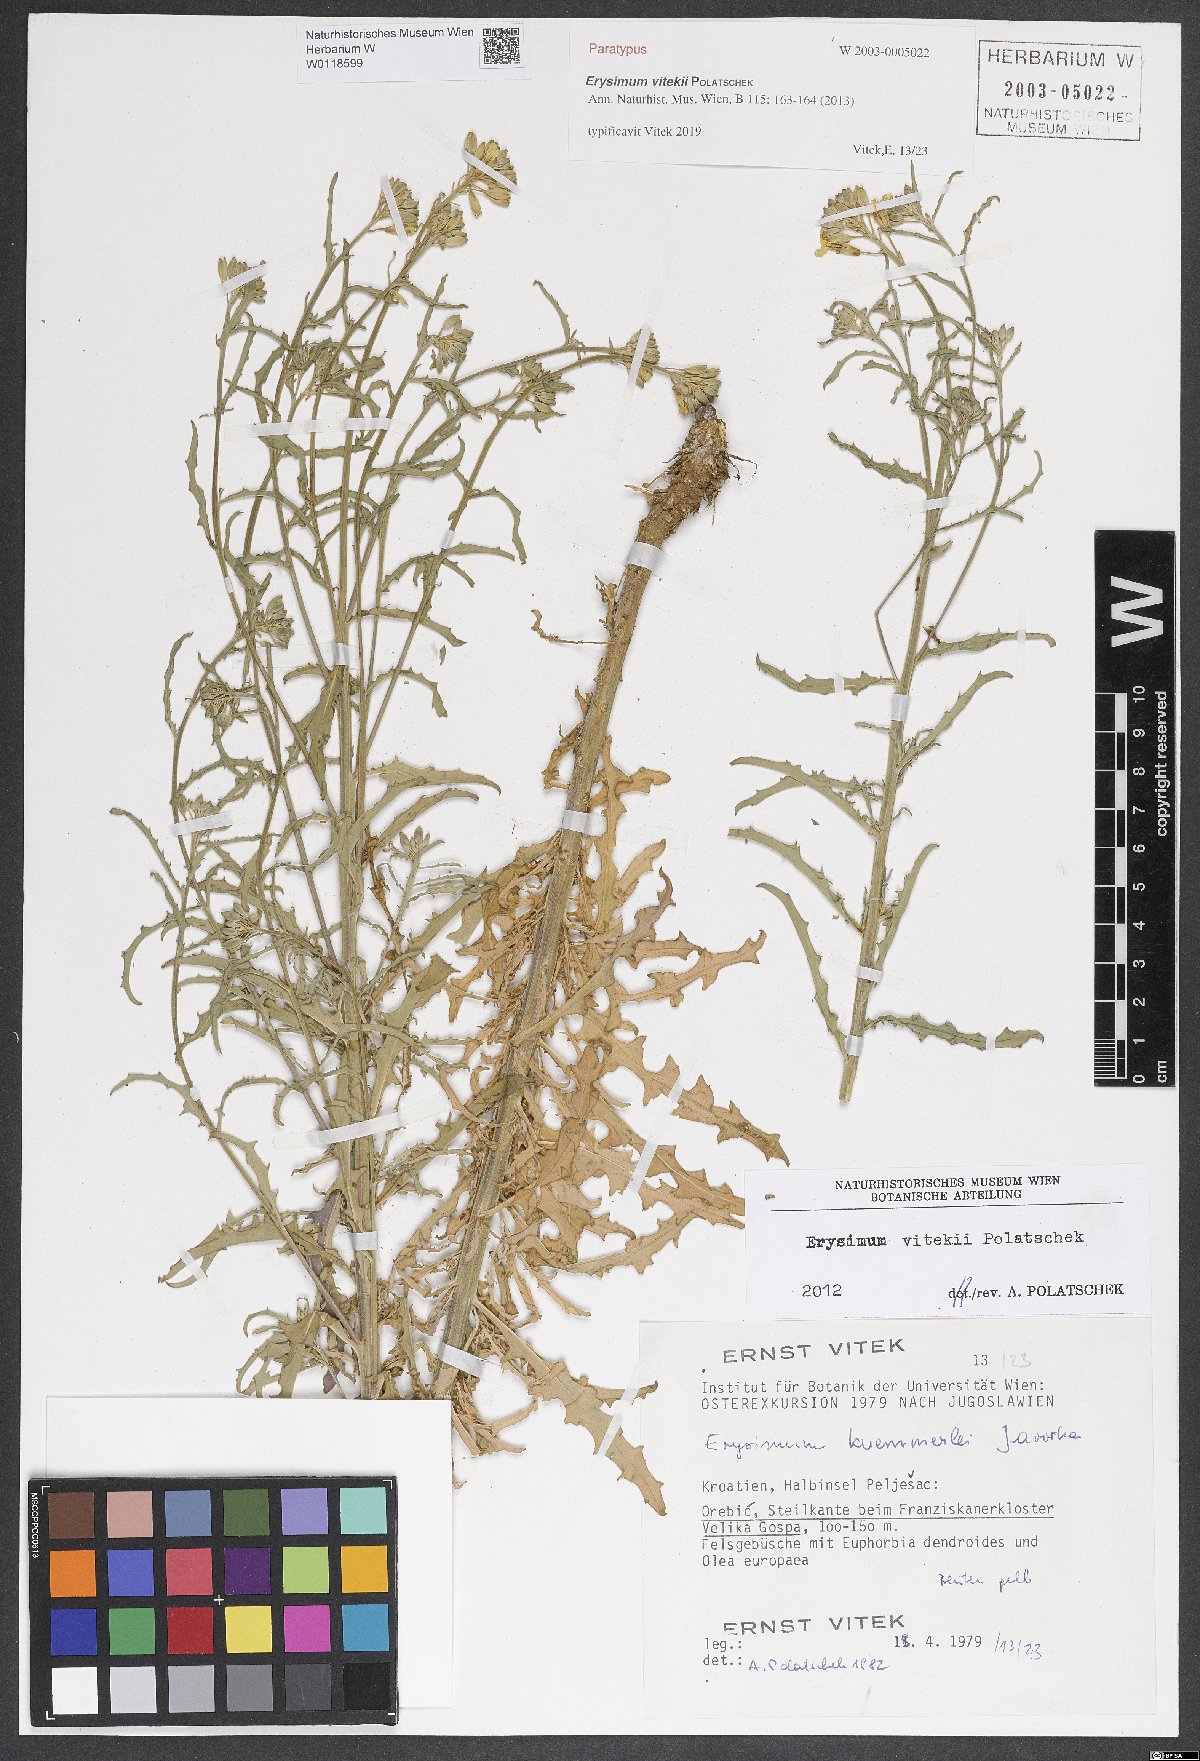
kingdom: Plantae
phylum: Tracheophyta
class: Magnoliopsida
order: Brassicales
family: Brassicaceae
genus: Erysimum
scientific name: Erysimum vitekii
